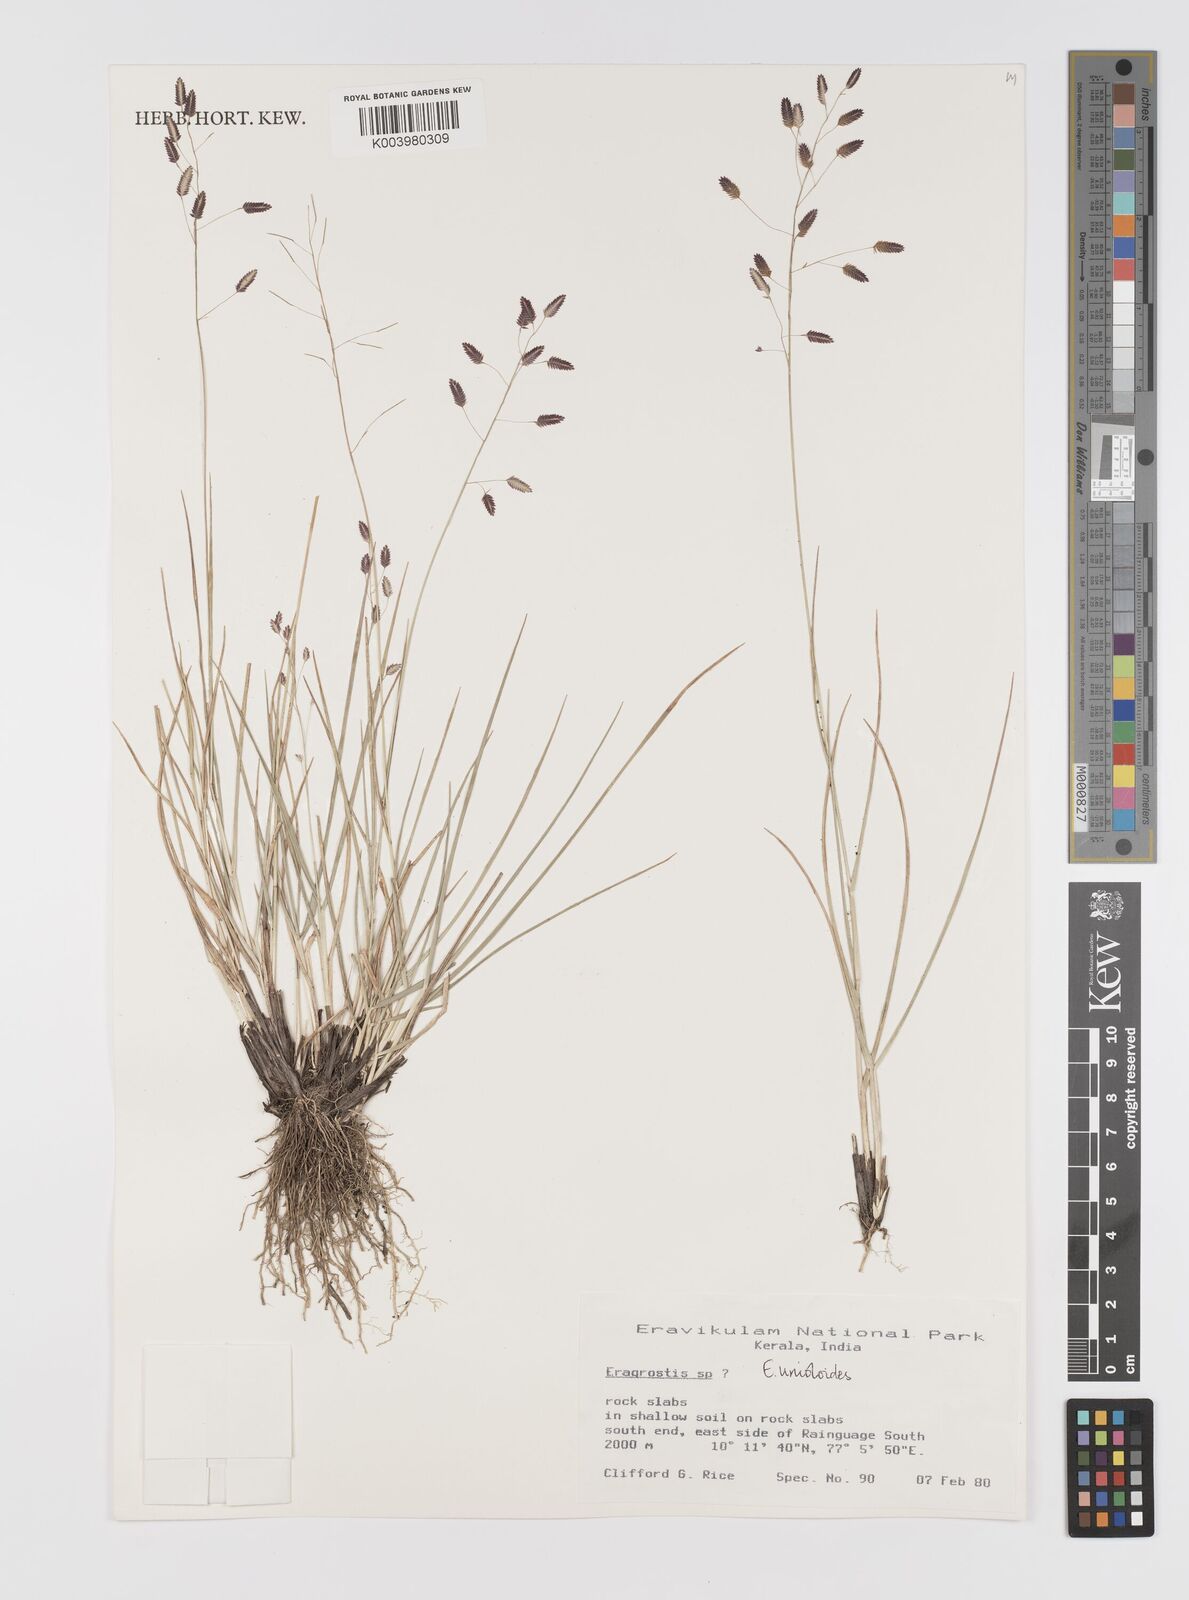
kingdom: Plantae
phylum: Tracheophyta
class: Liliopsida
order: Poales
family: Poaceae
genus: Eragrostis
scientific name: Eragrostis unioloides
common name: Chinese lovegrass
